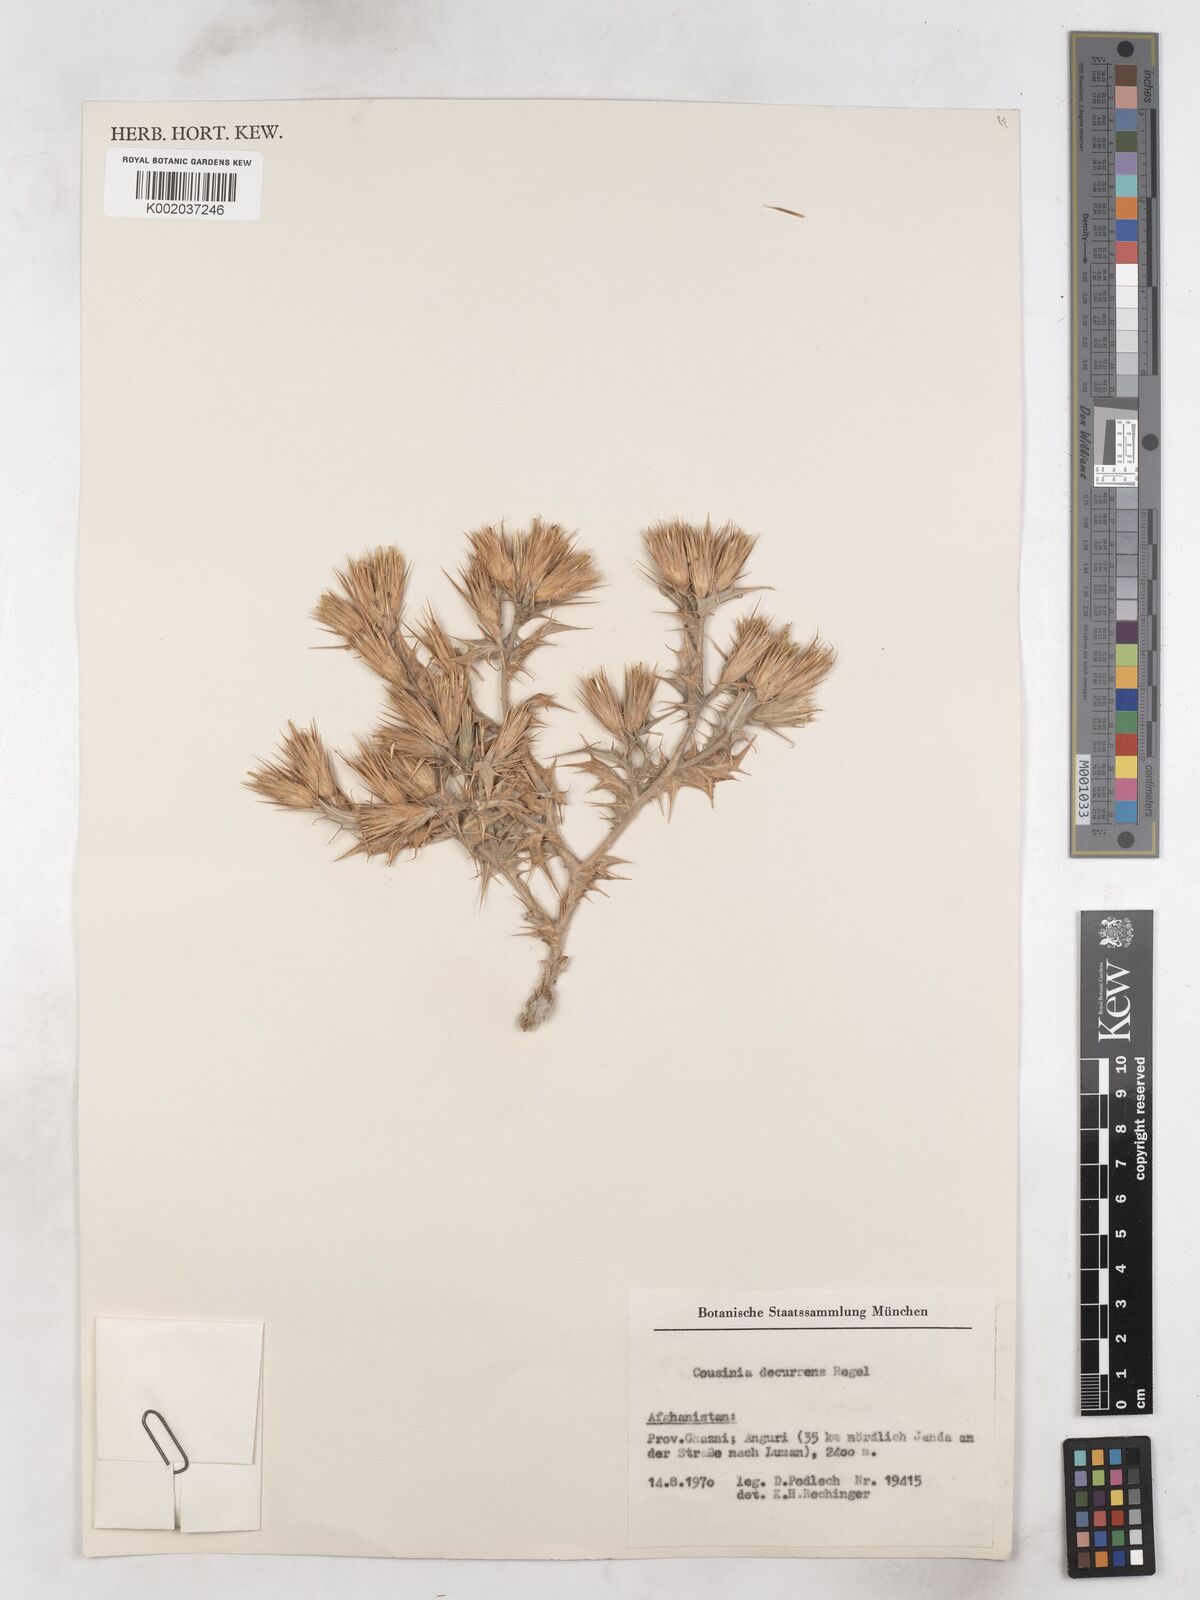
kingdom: Plantae
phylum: Tracheophyta
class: Magnoliopsida
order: Asterales
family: Asteraceae
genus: Cousinia
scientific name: Cousinia decurrens
